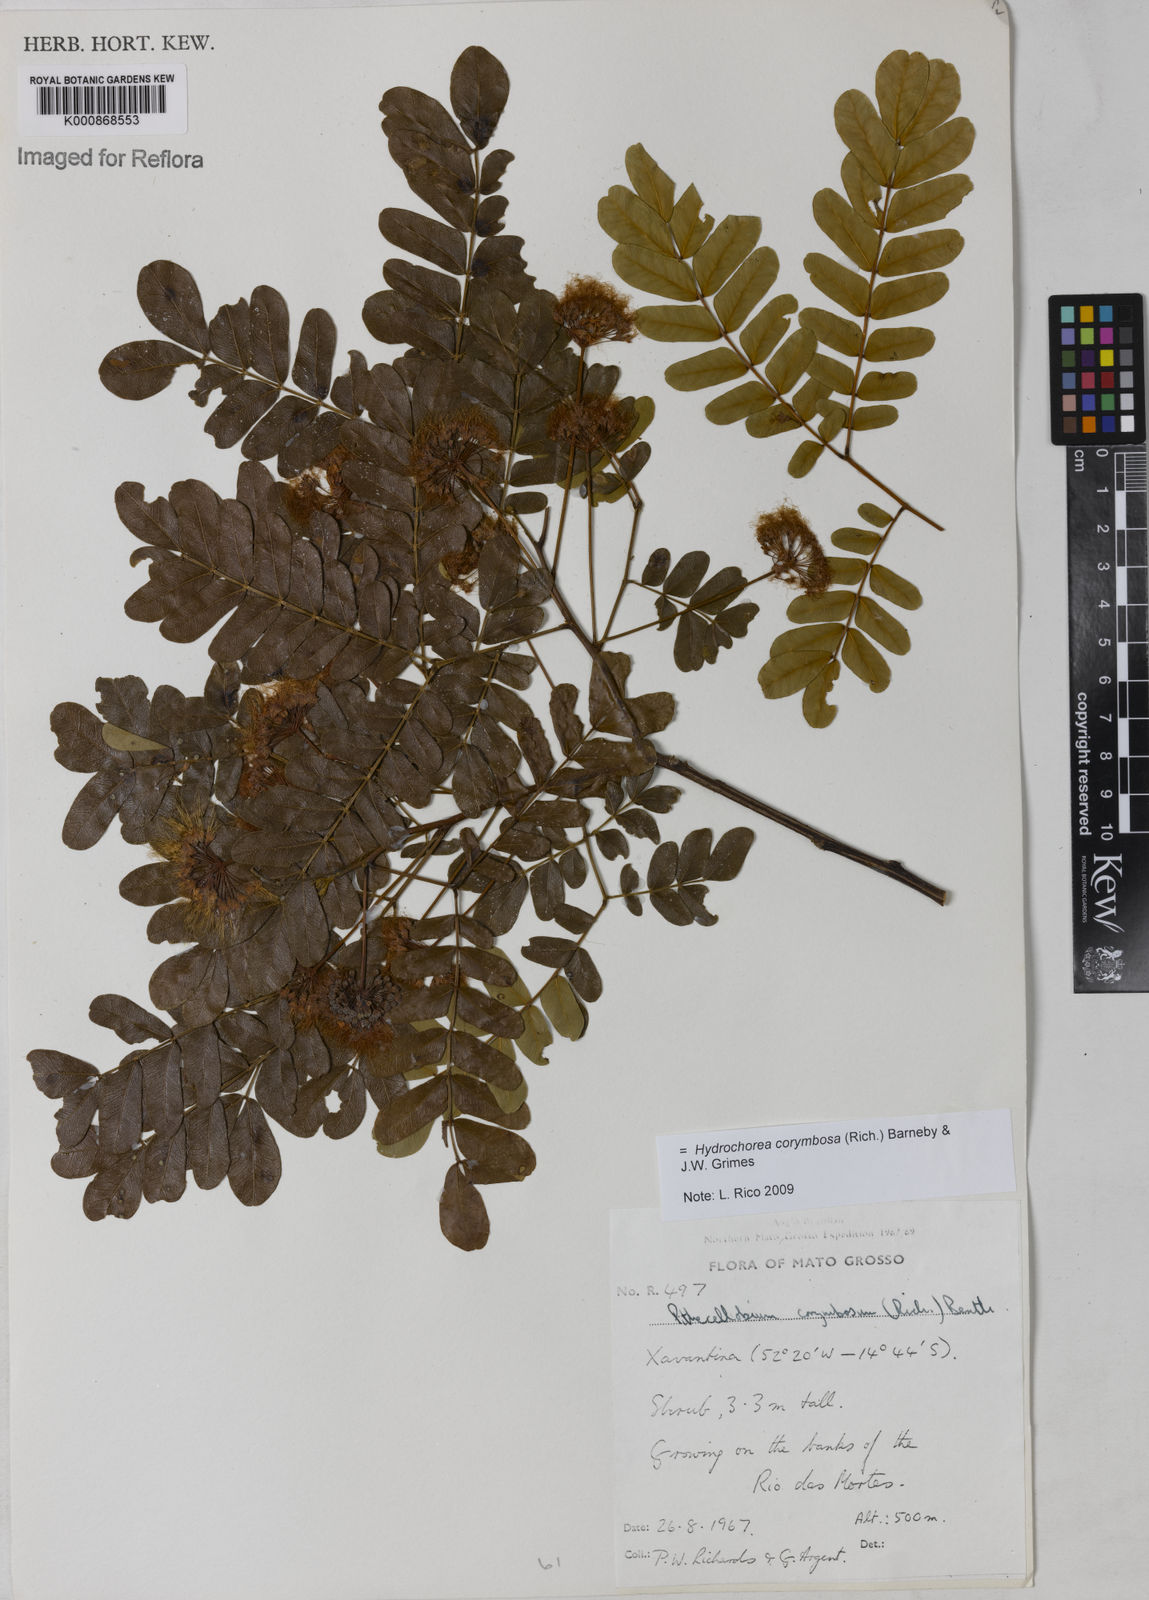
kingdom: Plantae
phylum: Tracheophyta
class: Magnoliopsida
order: Fabales
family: Fabaceae
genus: Hydrochorea
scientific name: Hydrochorea corymbosa
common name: Swamp manariballi
